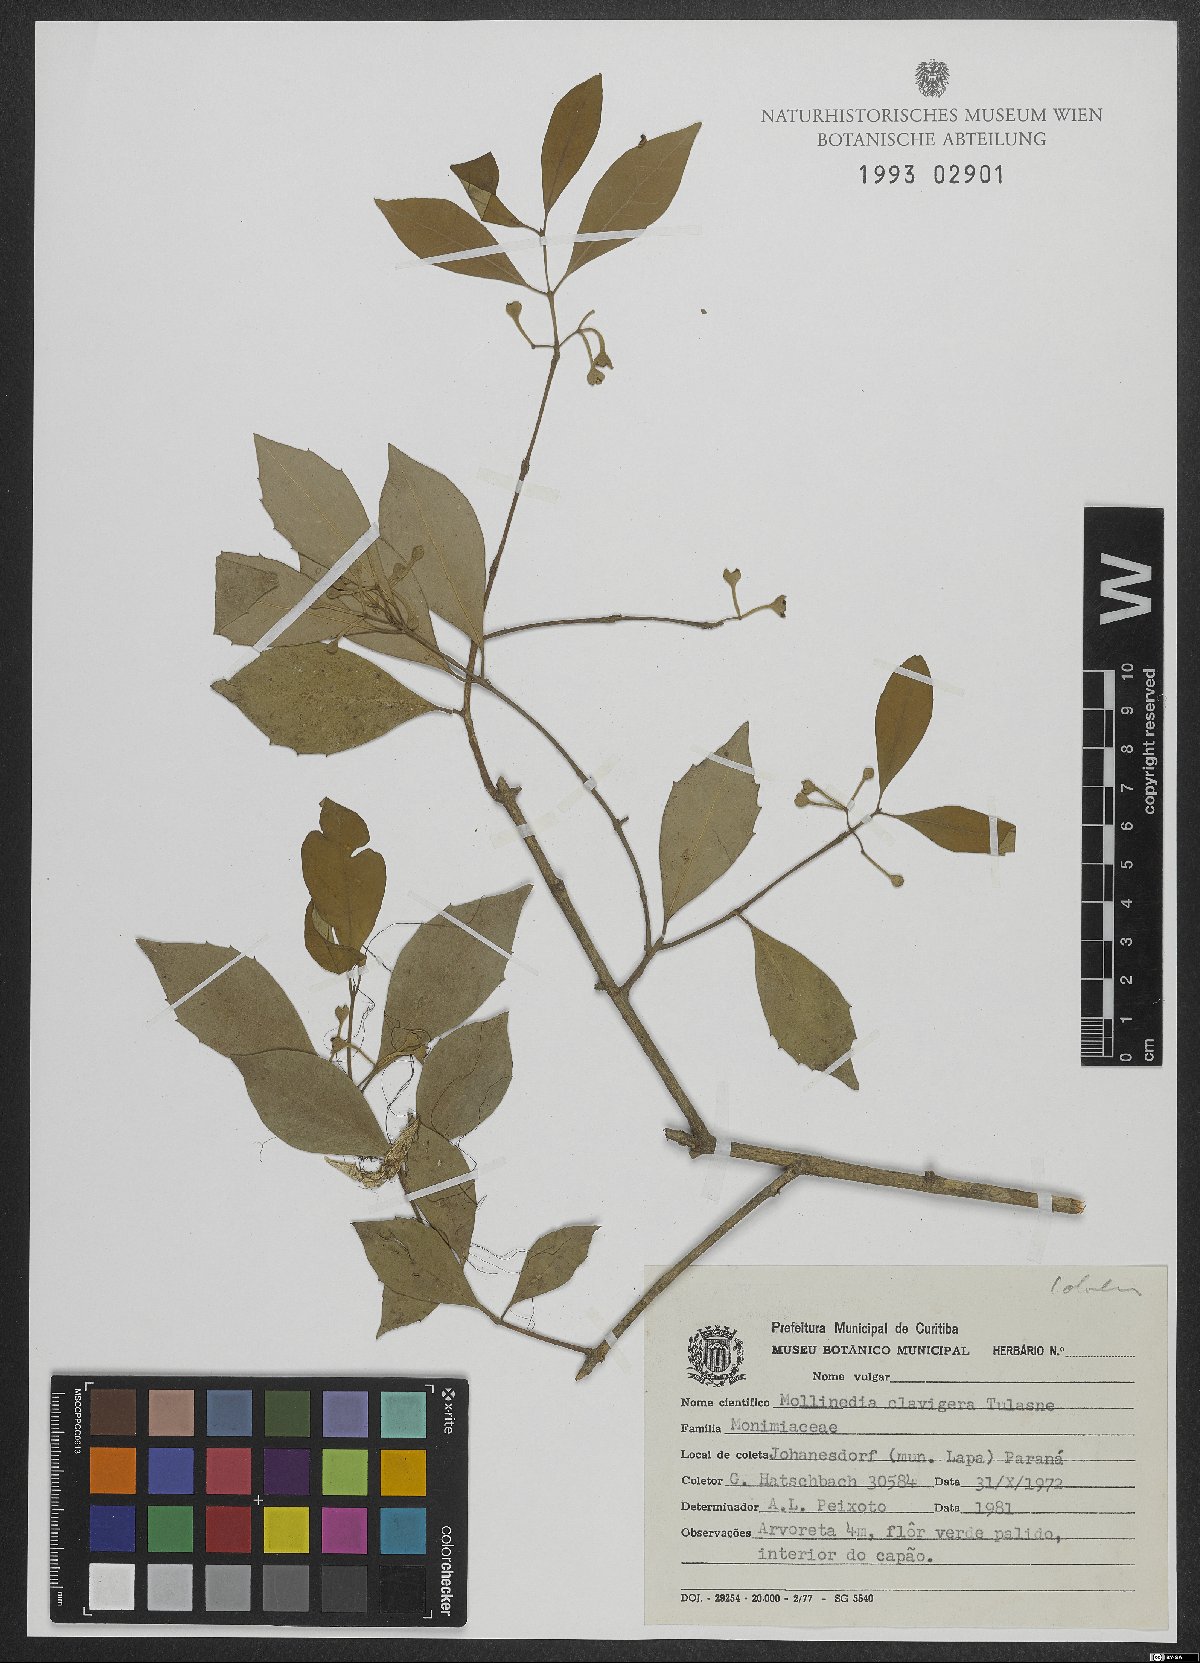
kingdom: Plantae
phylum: Tracheophyta
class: Magnoliopsida
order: Laurales
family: Monimiaceae
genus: Mollinedia
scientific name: Mollinedia clavigera
